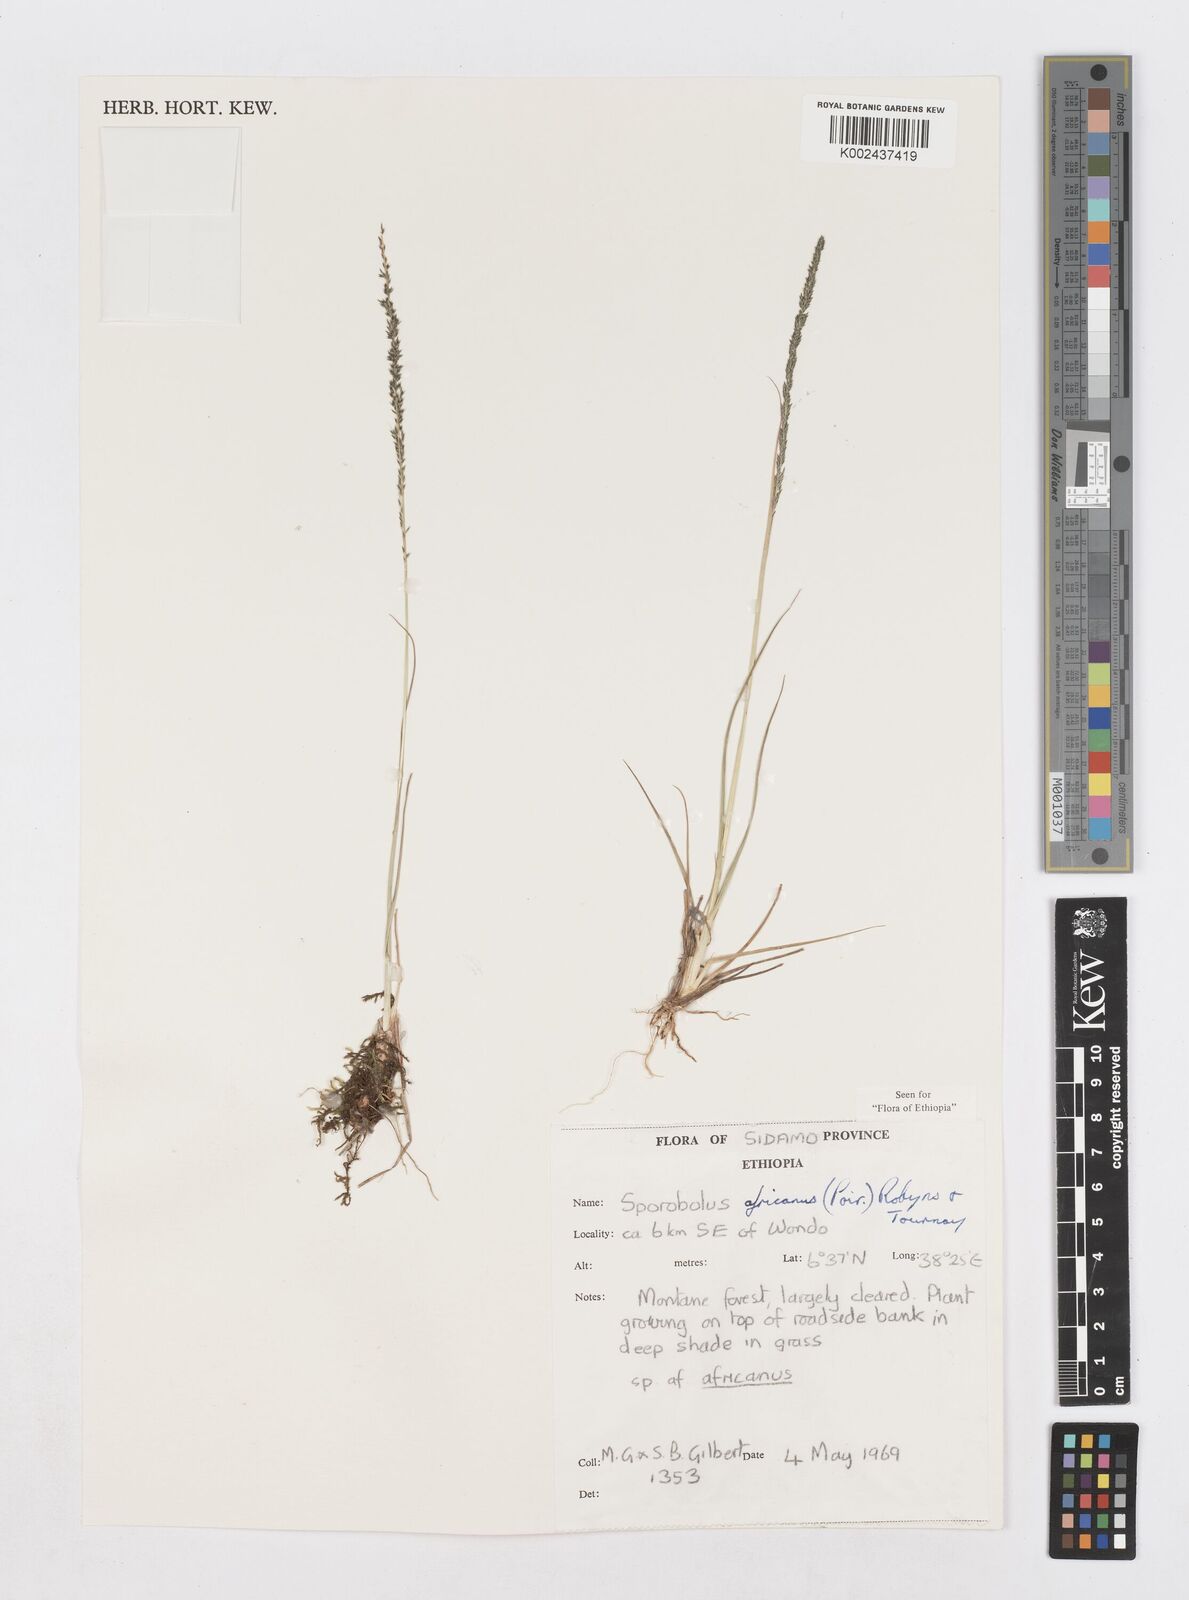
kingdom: Plantae
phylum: Tracheophyta
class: Liliopsida
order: Poales
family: Poaceae
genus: Sporobolus
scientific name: Sporobolus africanus
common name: African dropseed
